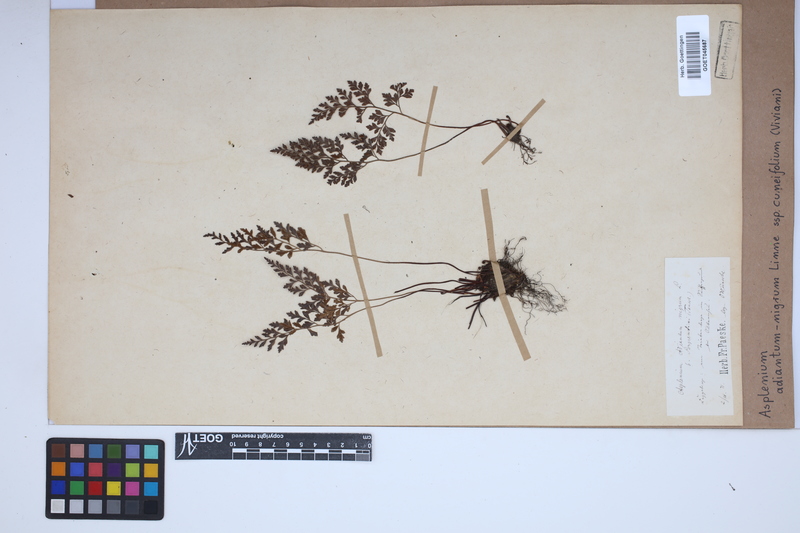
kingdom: Plantae
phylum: Tracheophyta
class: Polypodiopsida
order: Polypodiales
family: Aspleniaceae
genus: Asplenium
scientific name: Asplenium cuneifolium
